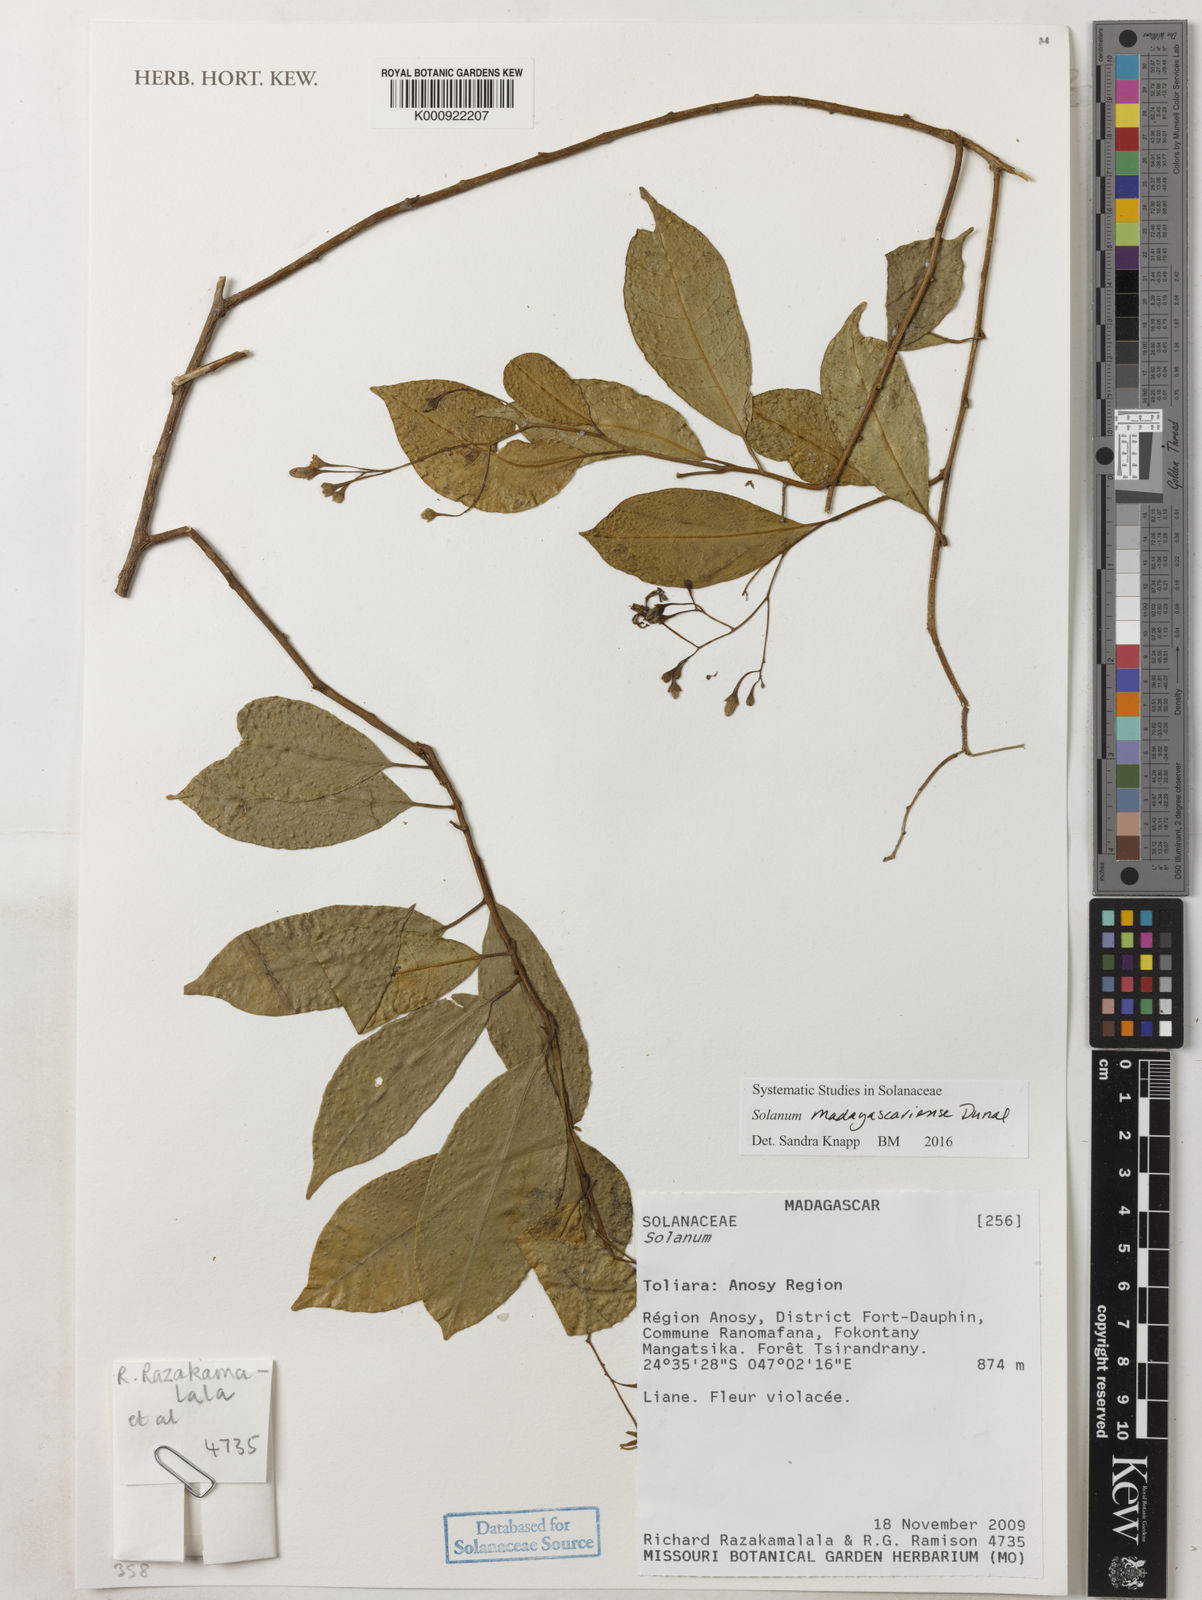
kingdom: Plantae
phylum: Tracheophyta
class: Magnoliopsida
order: Solanales
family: Solanaceae
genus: Solanum
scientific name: Solanum madagascariense
